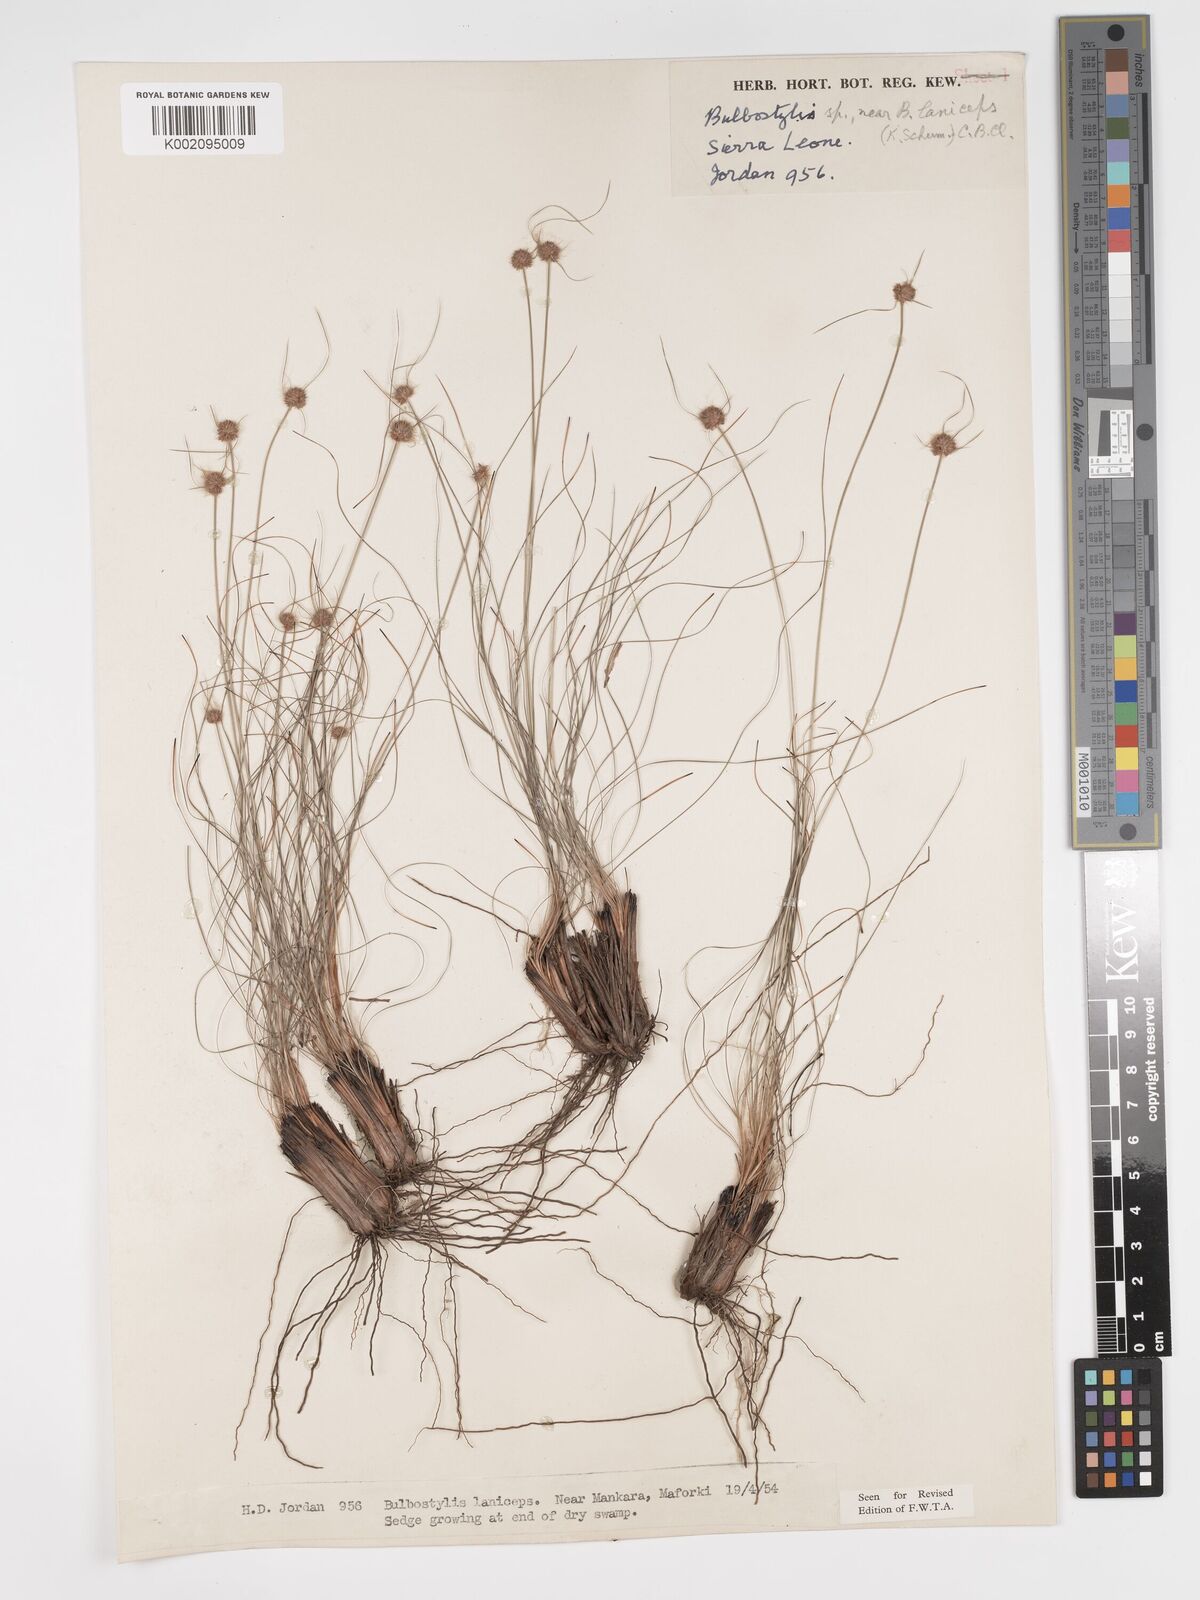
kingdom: Plantae
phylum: Tracheophyta
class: Liliopsida
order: Poales
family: Cyperaceae
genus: Bulbostylis
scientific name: Bulbostylis laniceps
